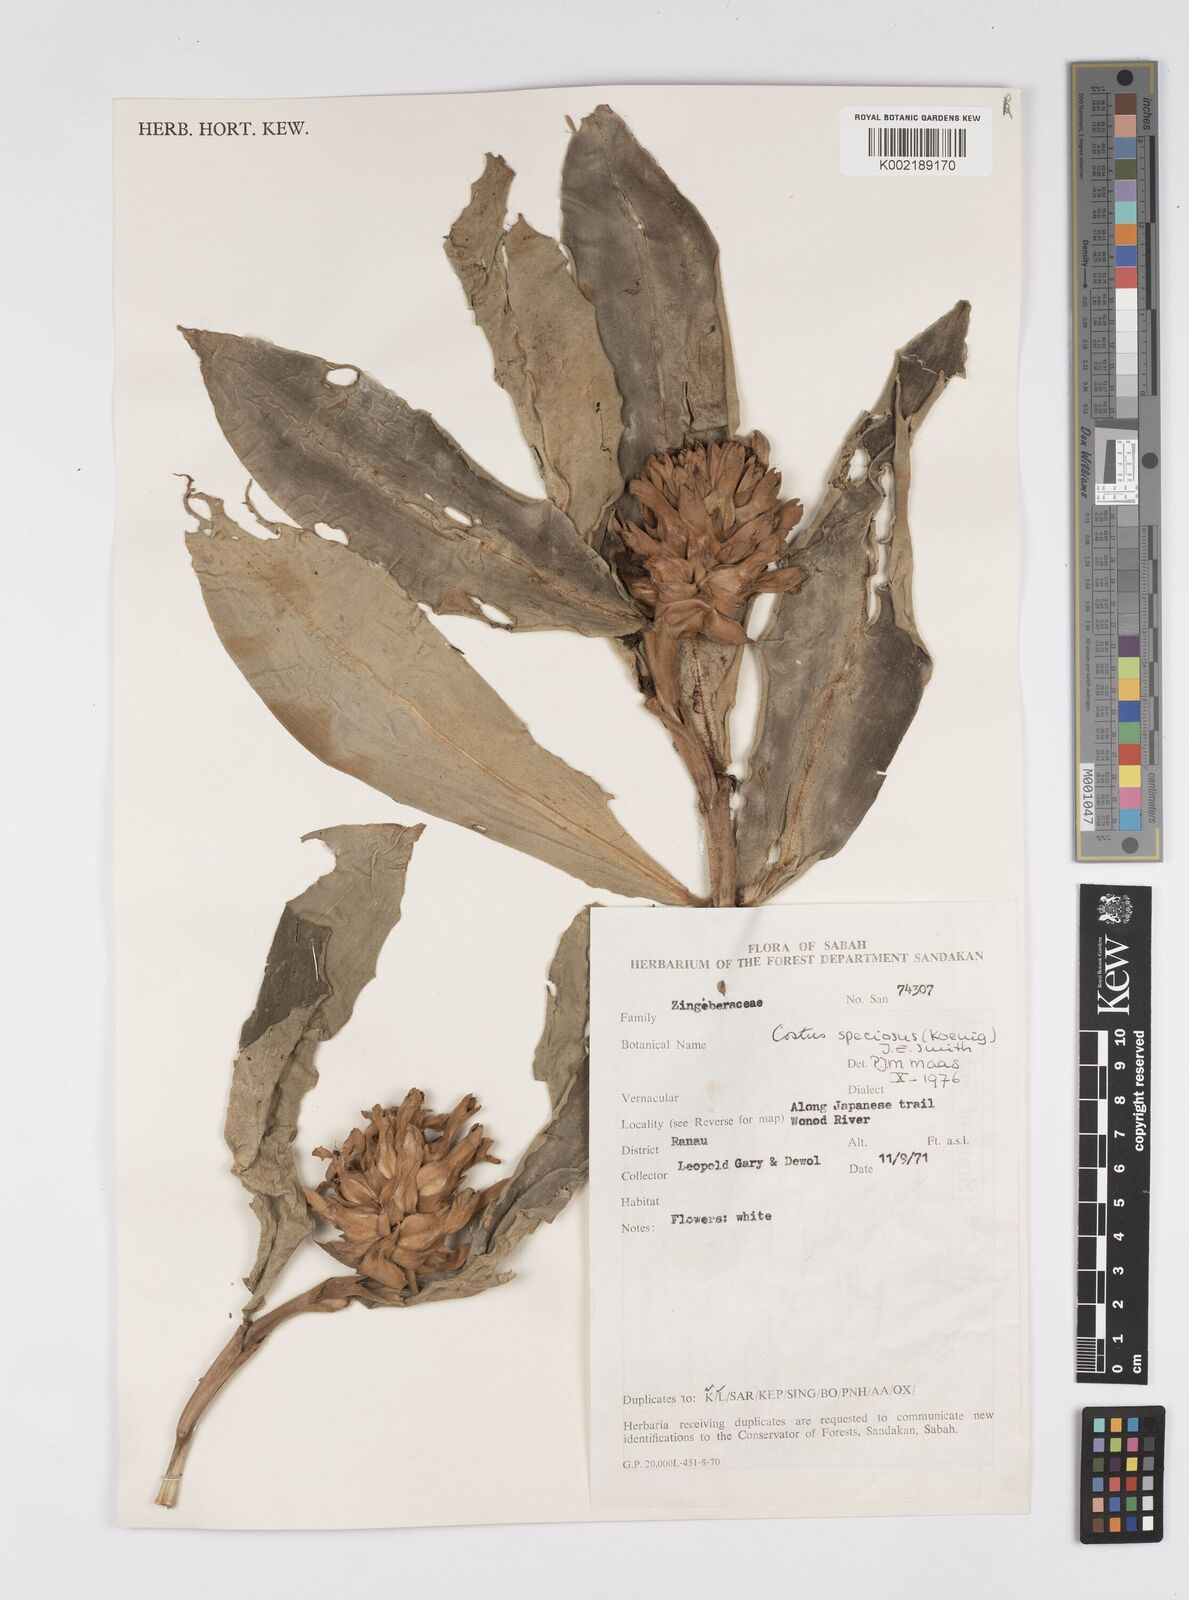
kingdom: Plantae
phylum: Tracheophyta
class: Liliopsida
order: Zingiberales
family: Costaceae
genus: Hellenia
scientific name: Hellenia speciosa
